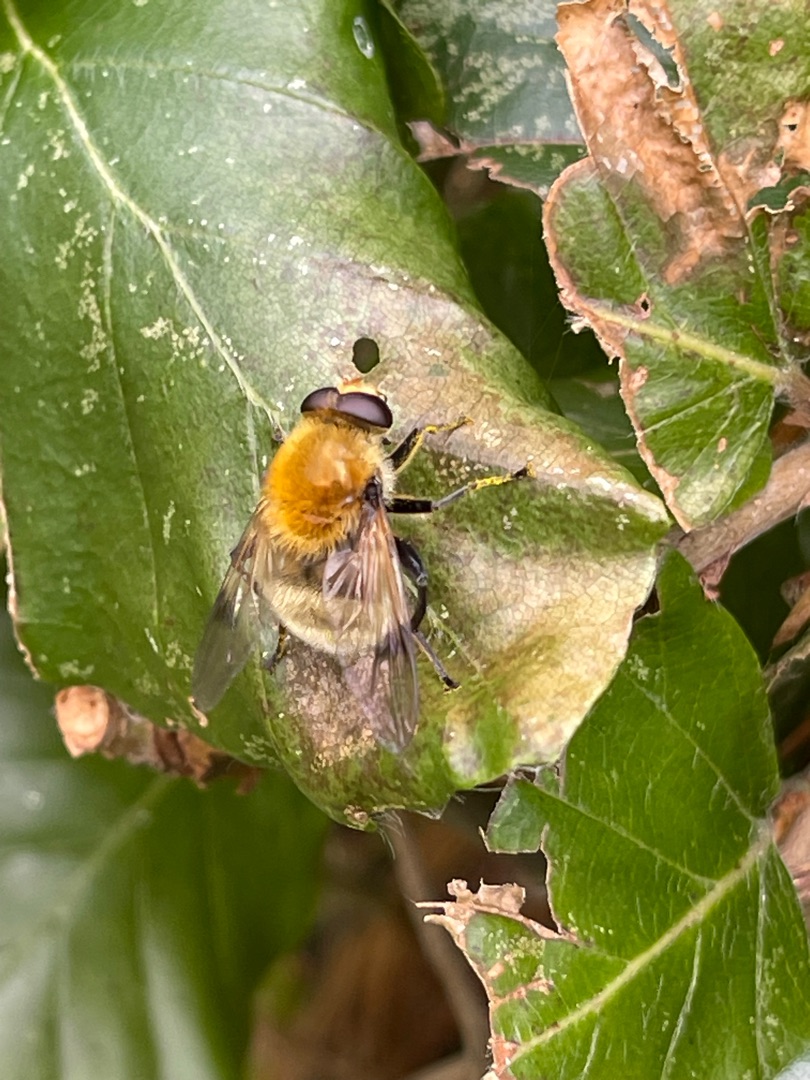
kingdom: Animalia
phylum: Arthropoda
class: Insecta
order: Diptera
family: Syrphidae
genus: Sericomyia
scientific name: Sericomyia superbiens
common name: Brun bjørnesvirreflue
